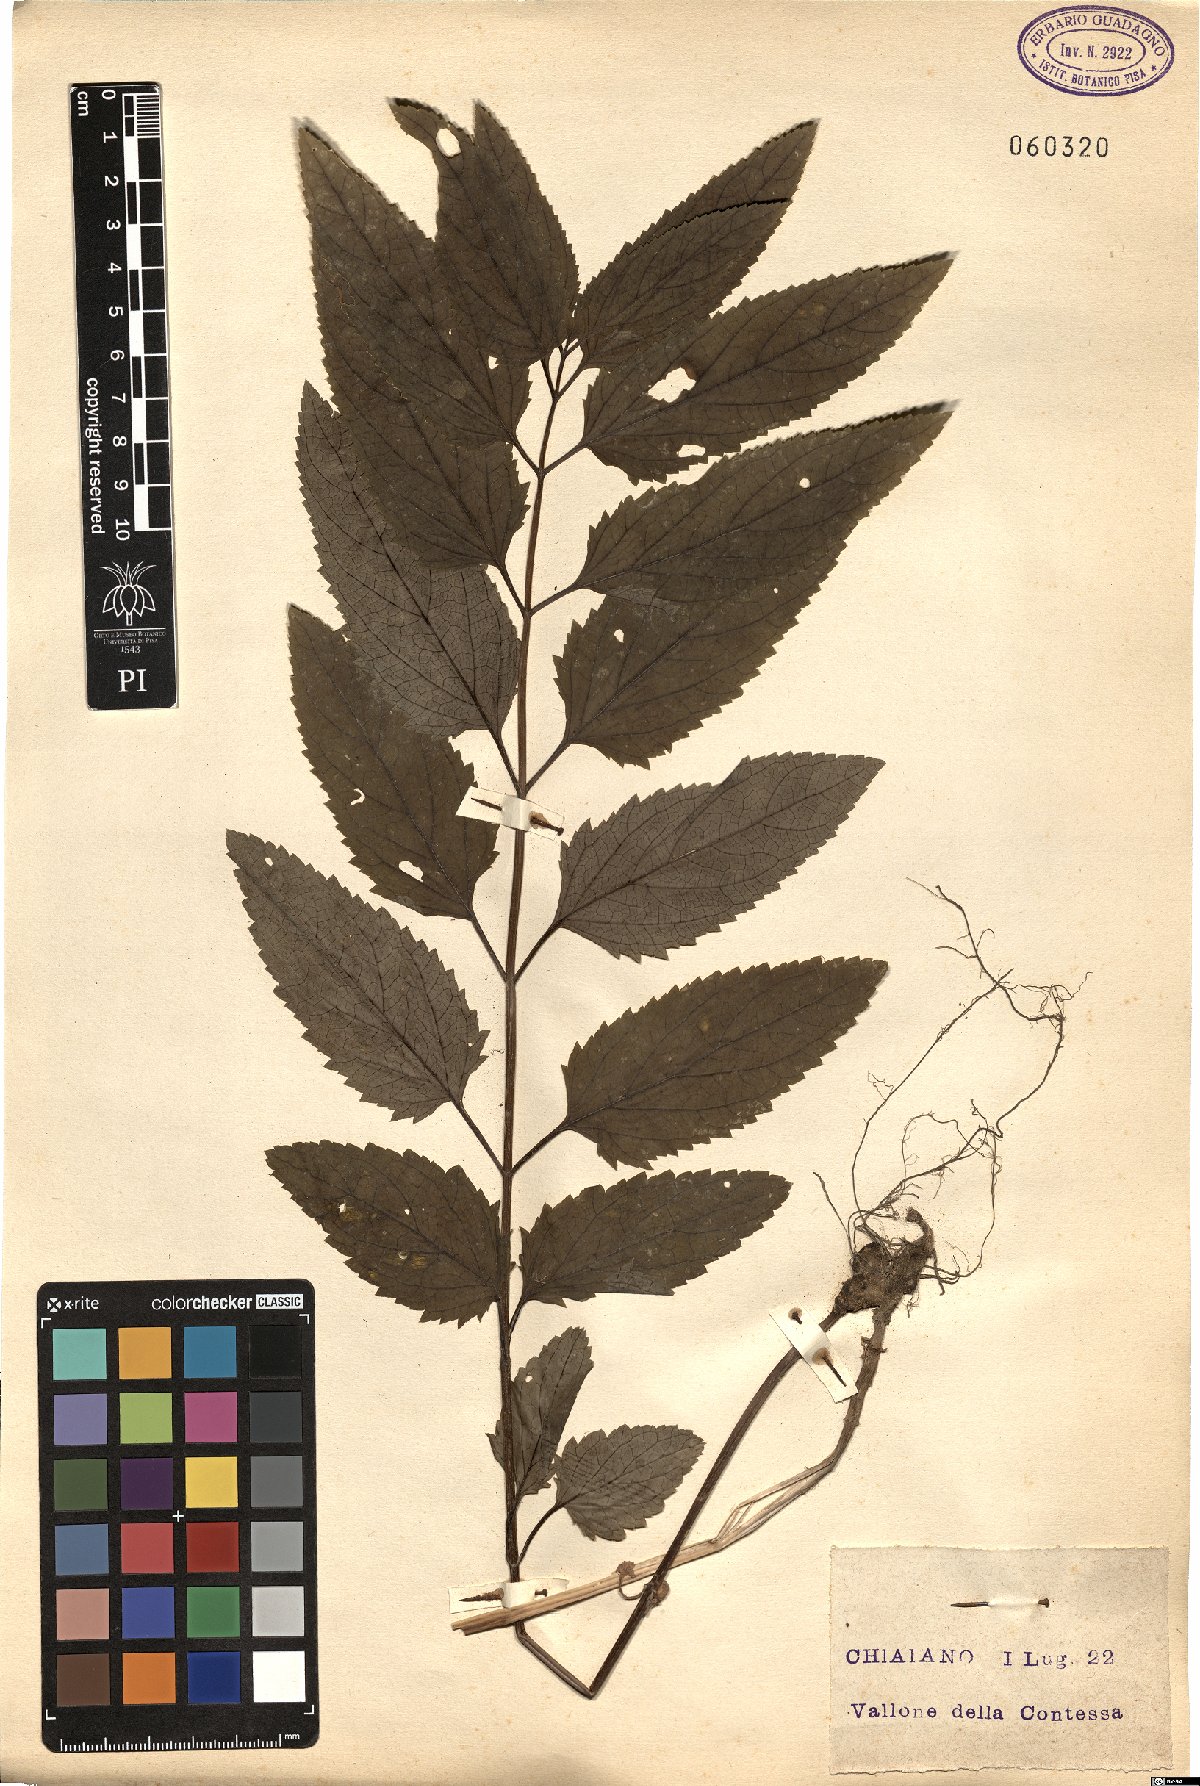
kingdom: Plantae
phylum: Tracheophyta
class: Magnoliopsida
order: Lamiales
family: Lamiaceae
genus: Melittis
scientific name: Melittis melissophyllum
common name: Bastard balm
